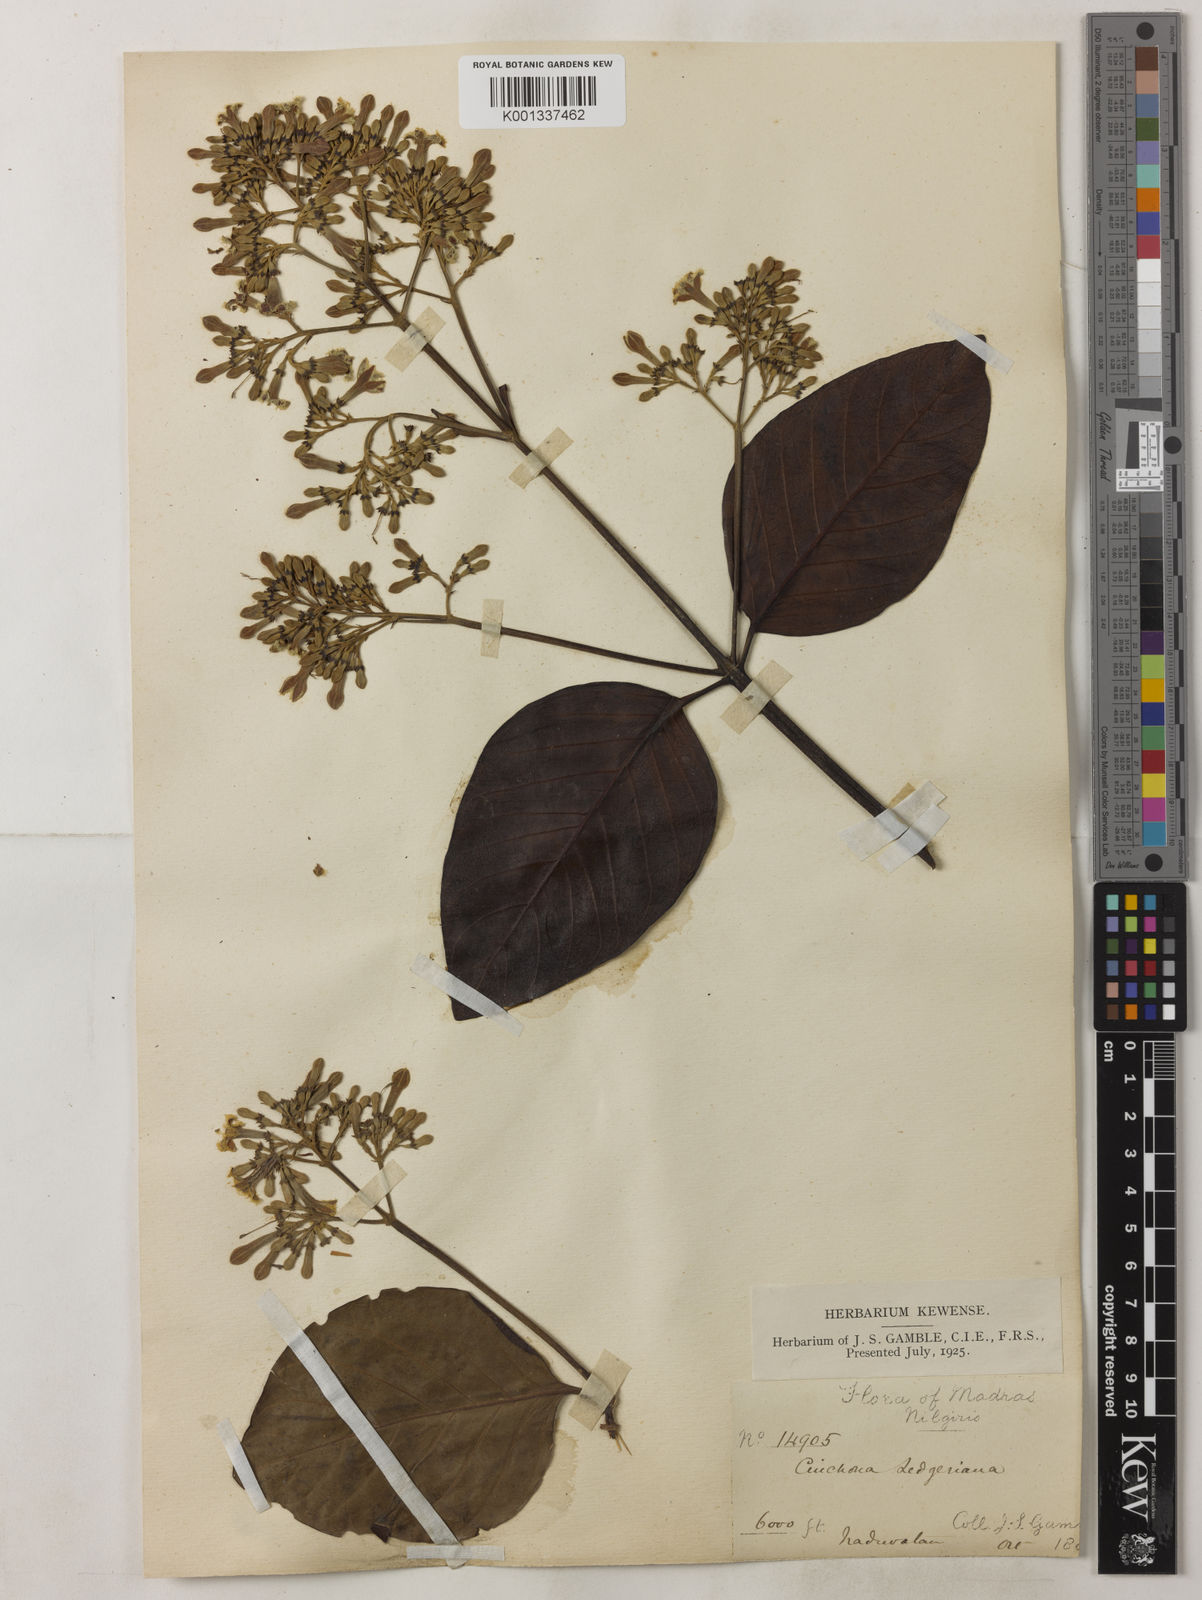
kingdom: Plantae
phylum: Tracheophyta
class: Magnoliopsida
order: Gentianales
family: Rubiaceae
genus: Cinchona
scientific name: Cinchona calisaya
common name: Ledgerbark
